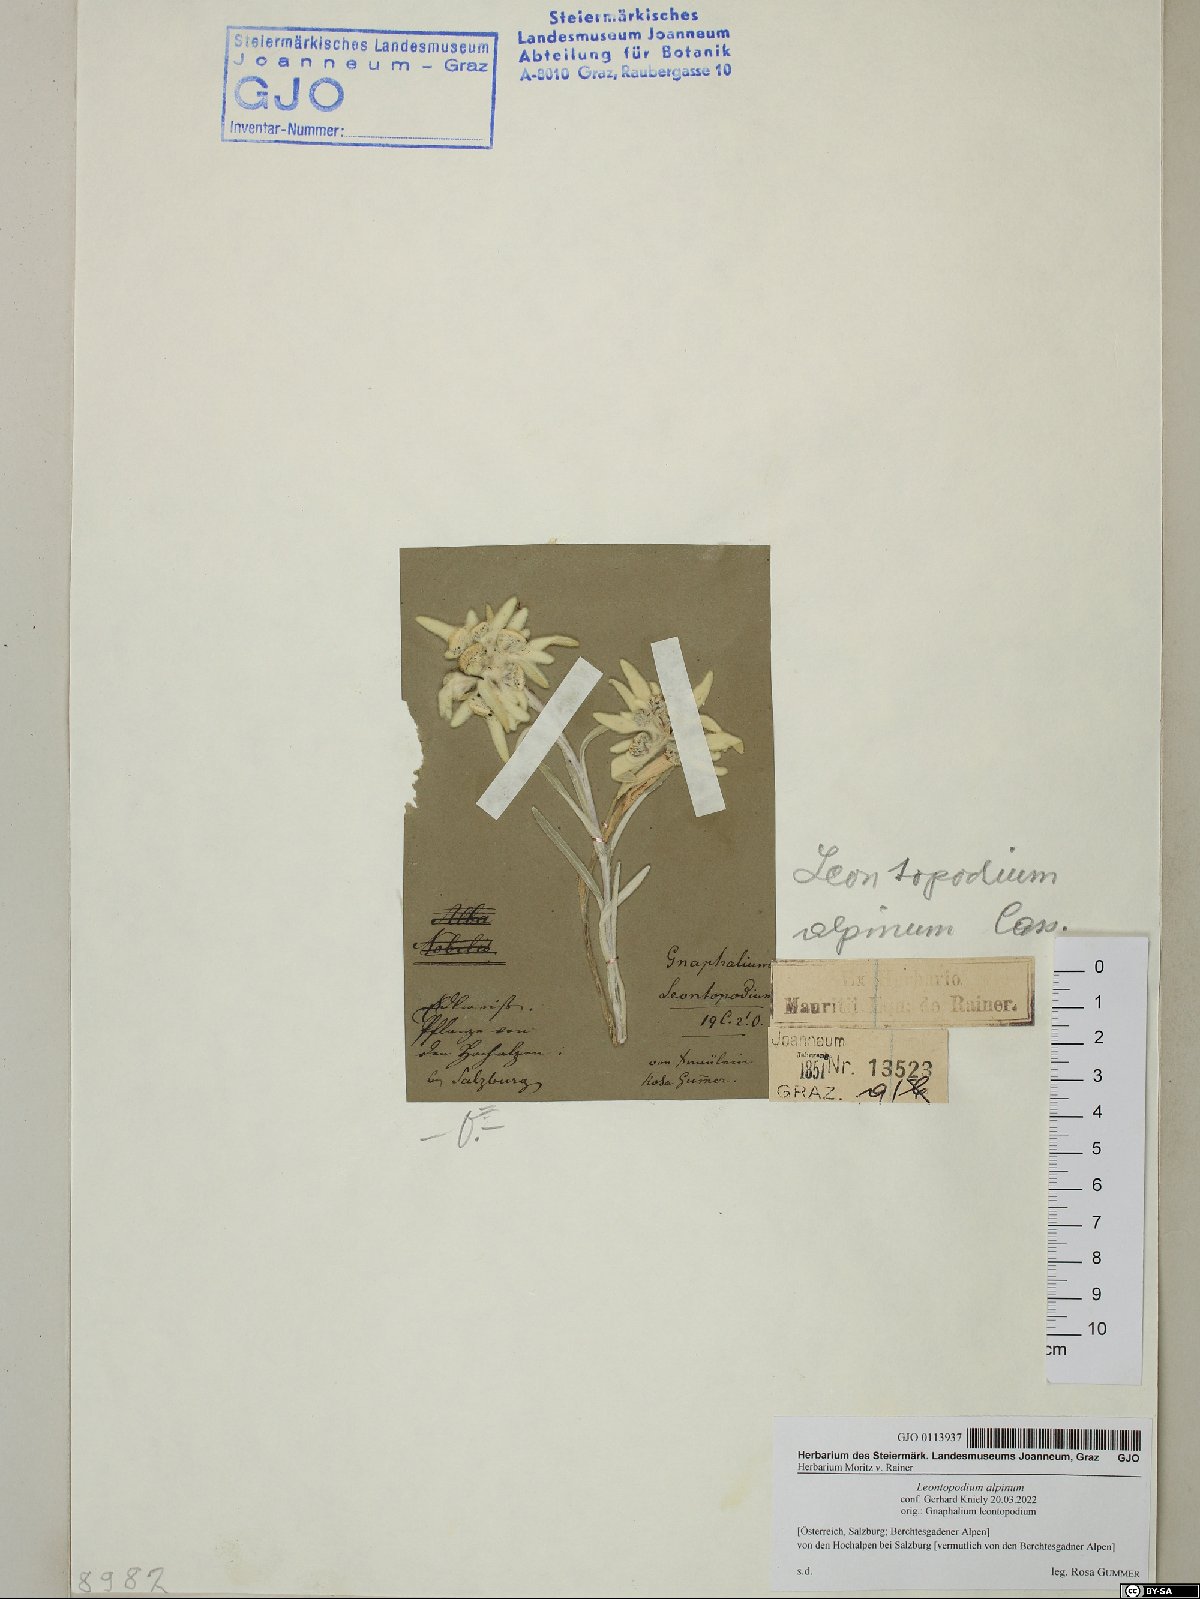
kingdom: Plantae
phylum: Tracheophyta
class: Magnoliopsida
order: Asterales
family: Asteraceae
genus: Leontopodium
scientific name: Leontopodium nivale
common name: Edelweiss
